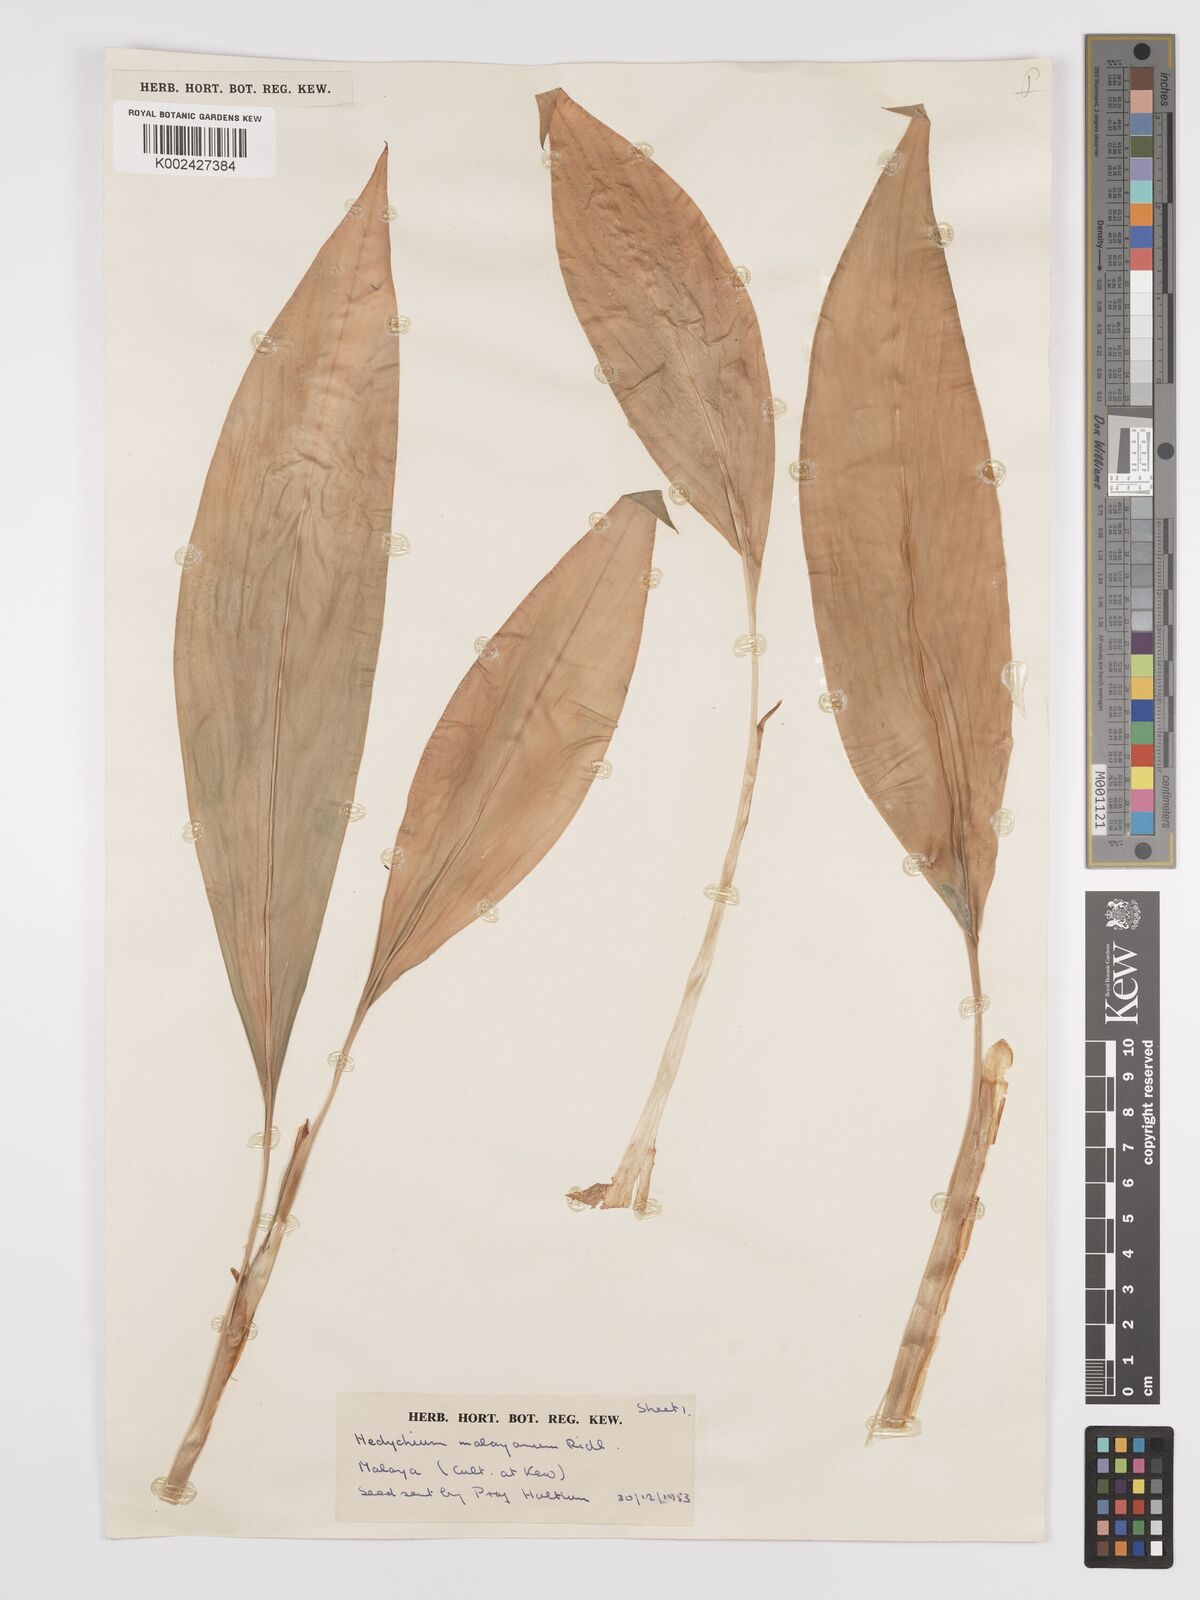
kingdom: Plantae
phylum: Tracheophyta
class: Liliopsida
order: Zingiberales
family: Zingiberaceae
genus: Hedychium
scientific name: Hedychium malayanum
